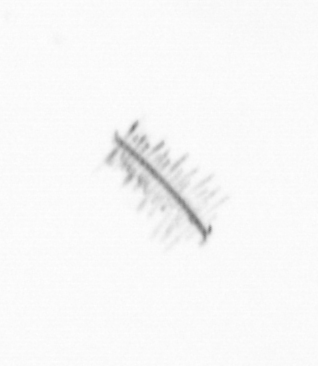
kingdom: Chromista
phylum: Ochrophyta
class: Bacillariophyceae
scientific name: Bacillariophyceae
